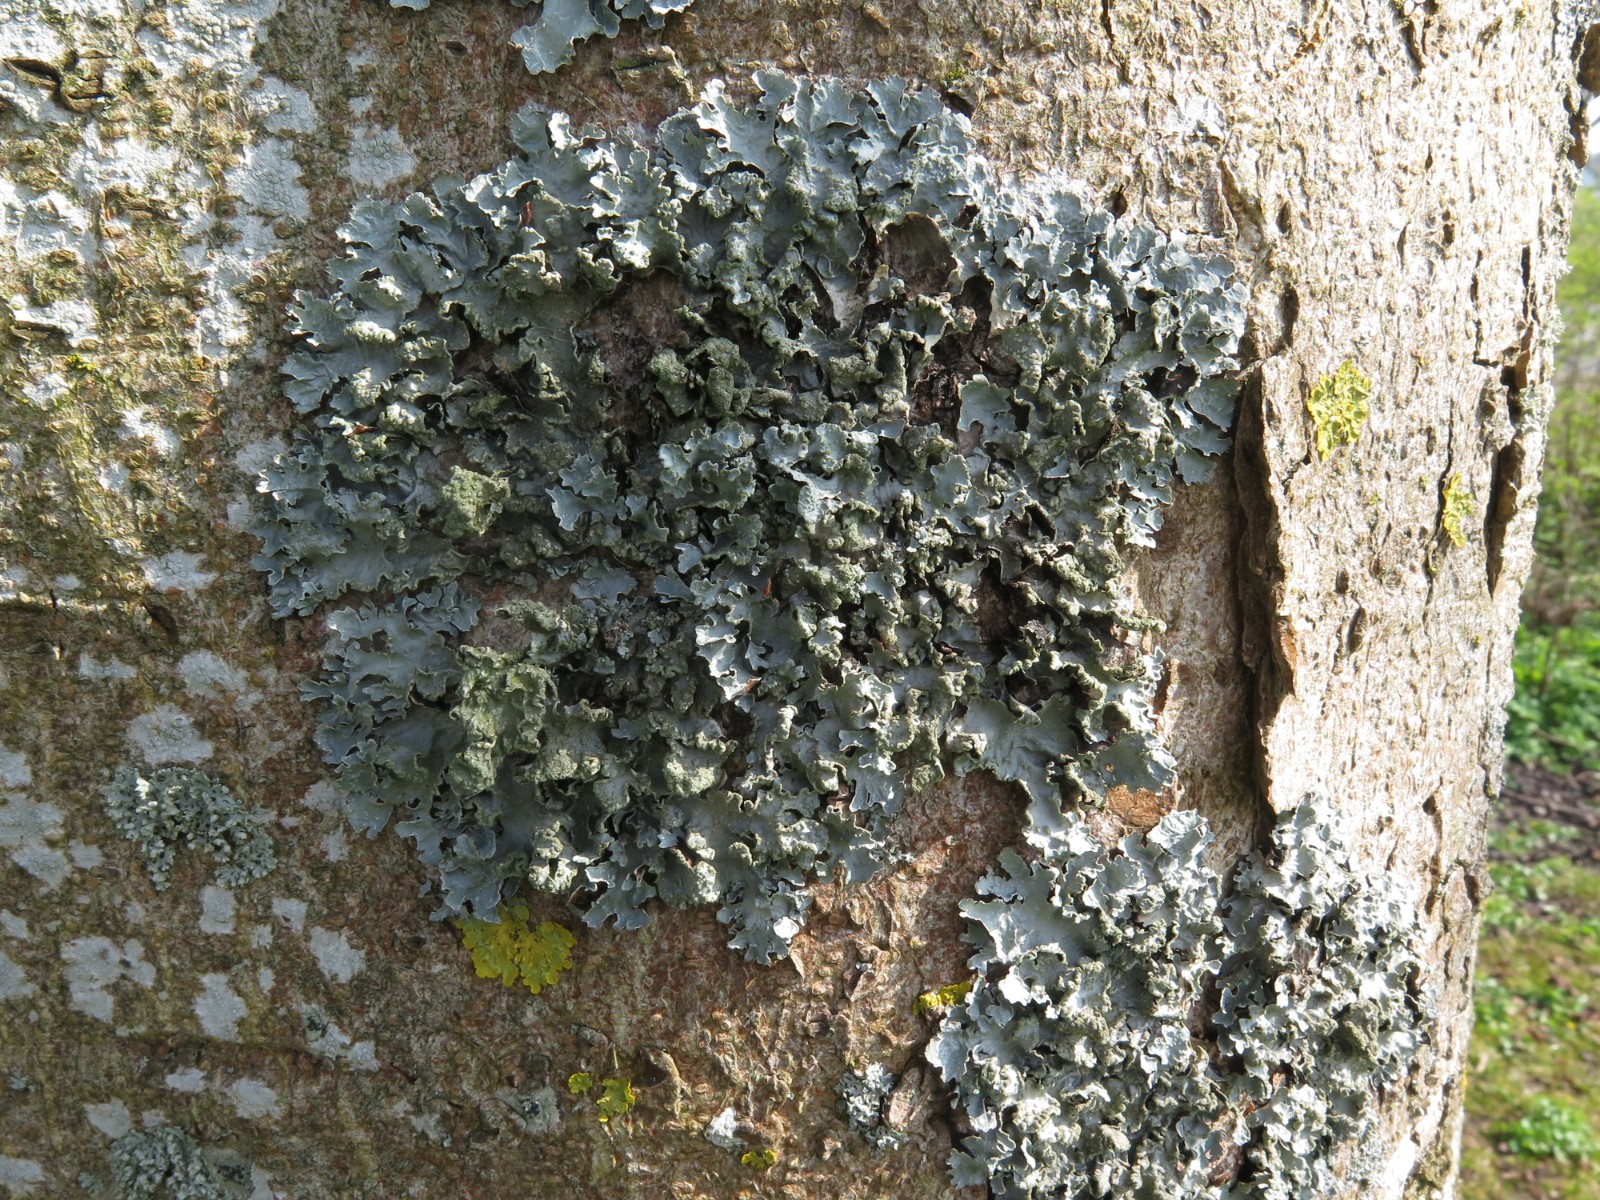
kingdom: Fungi
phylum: Ascomycota
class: Lecanoromycetes
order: Lecanorales
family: Parmeliaceae
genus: Parmelia
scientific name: Parmelia sulcata
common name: rynket skållav
